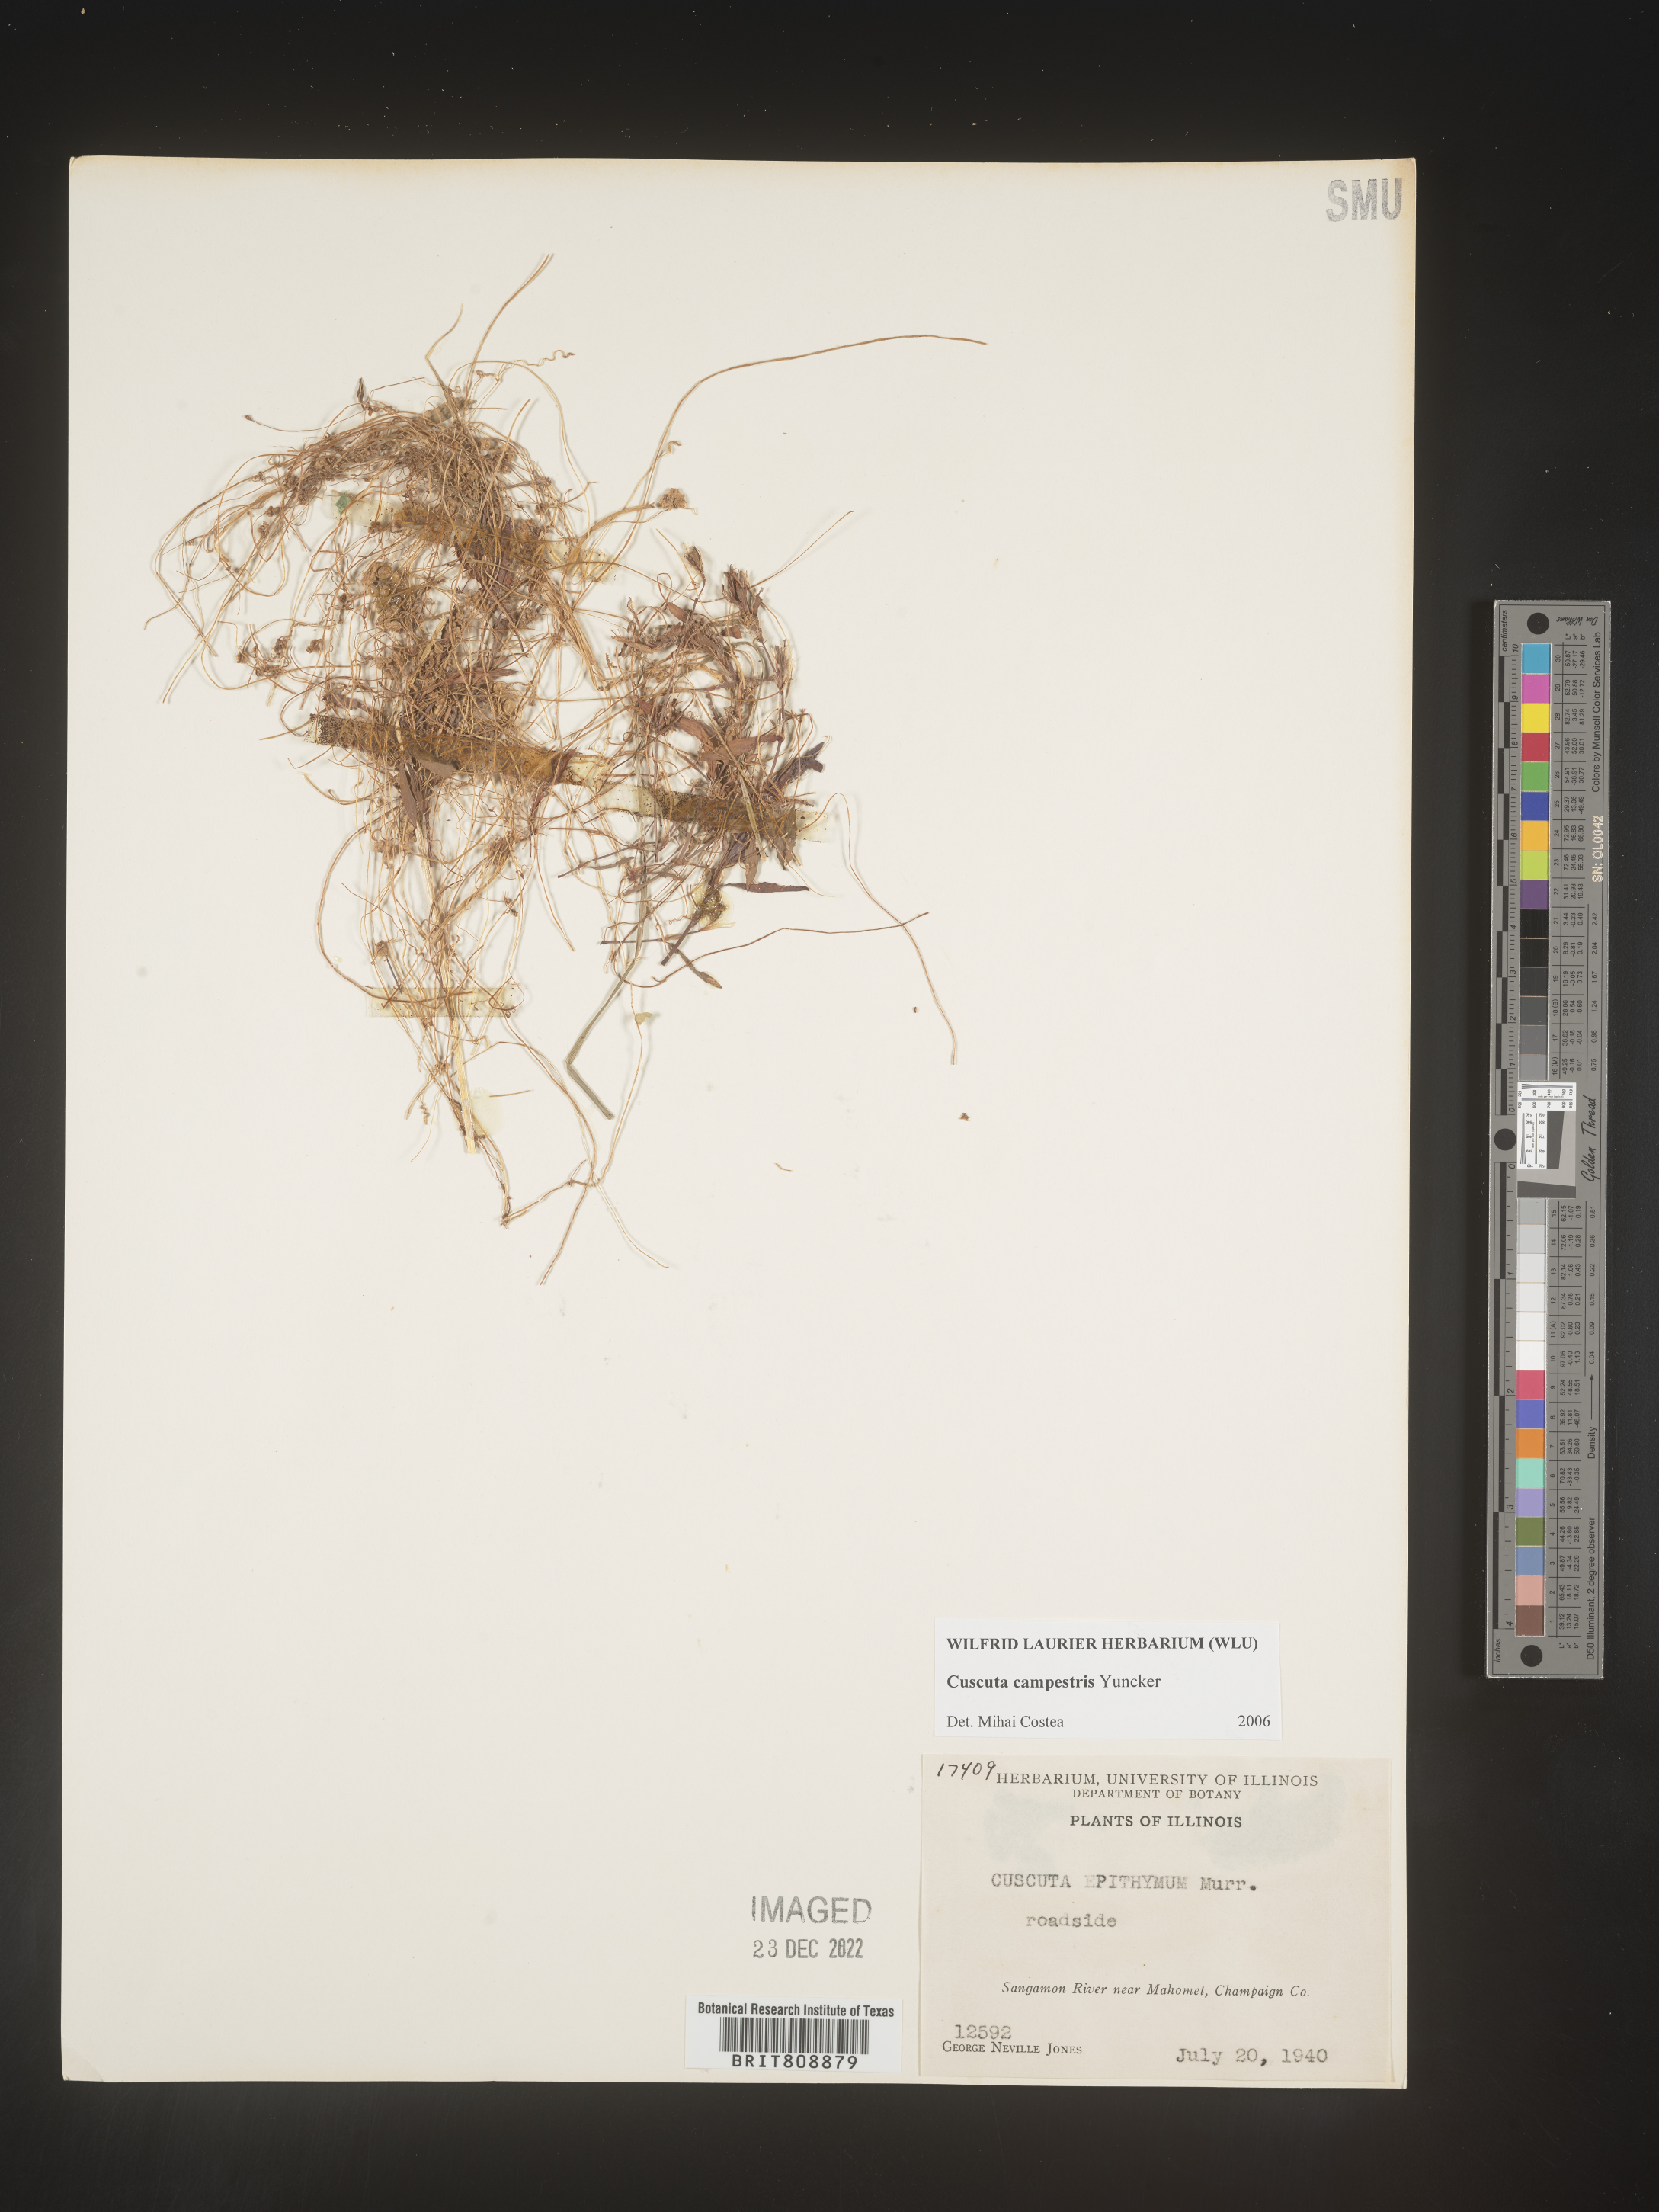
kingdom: Plantae
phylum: Tracheophyta
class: Magnoliopsida
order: Solanales
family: Convolvulaceae
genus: Cuscuta
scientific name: Cuscuta campestris
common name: Yellow dodder
